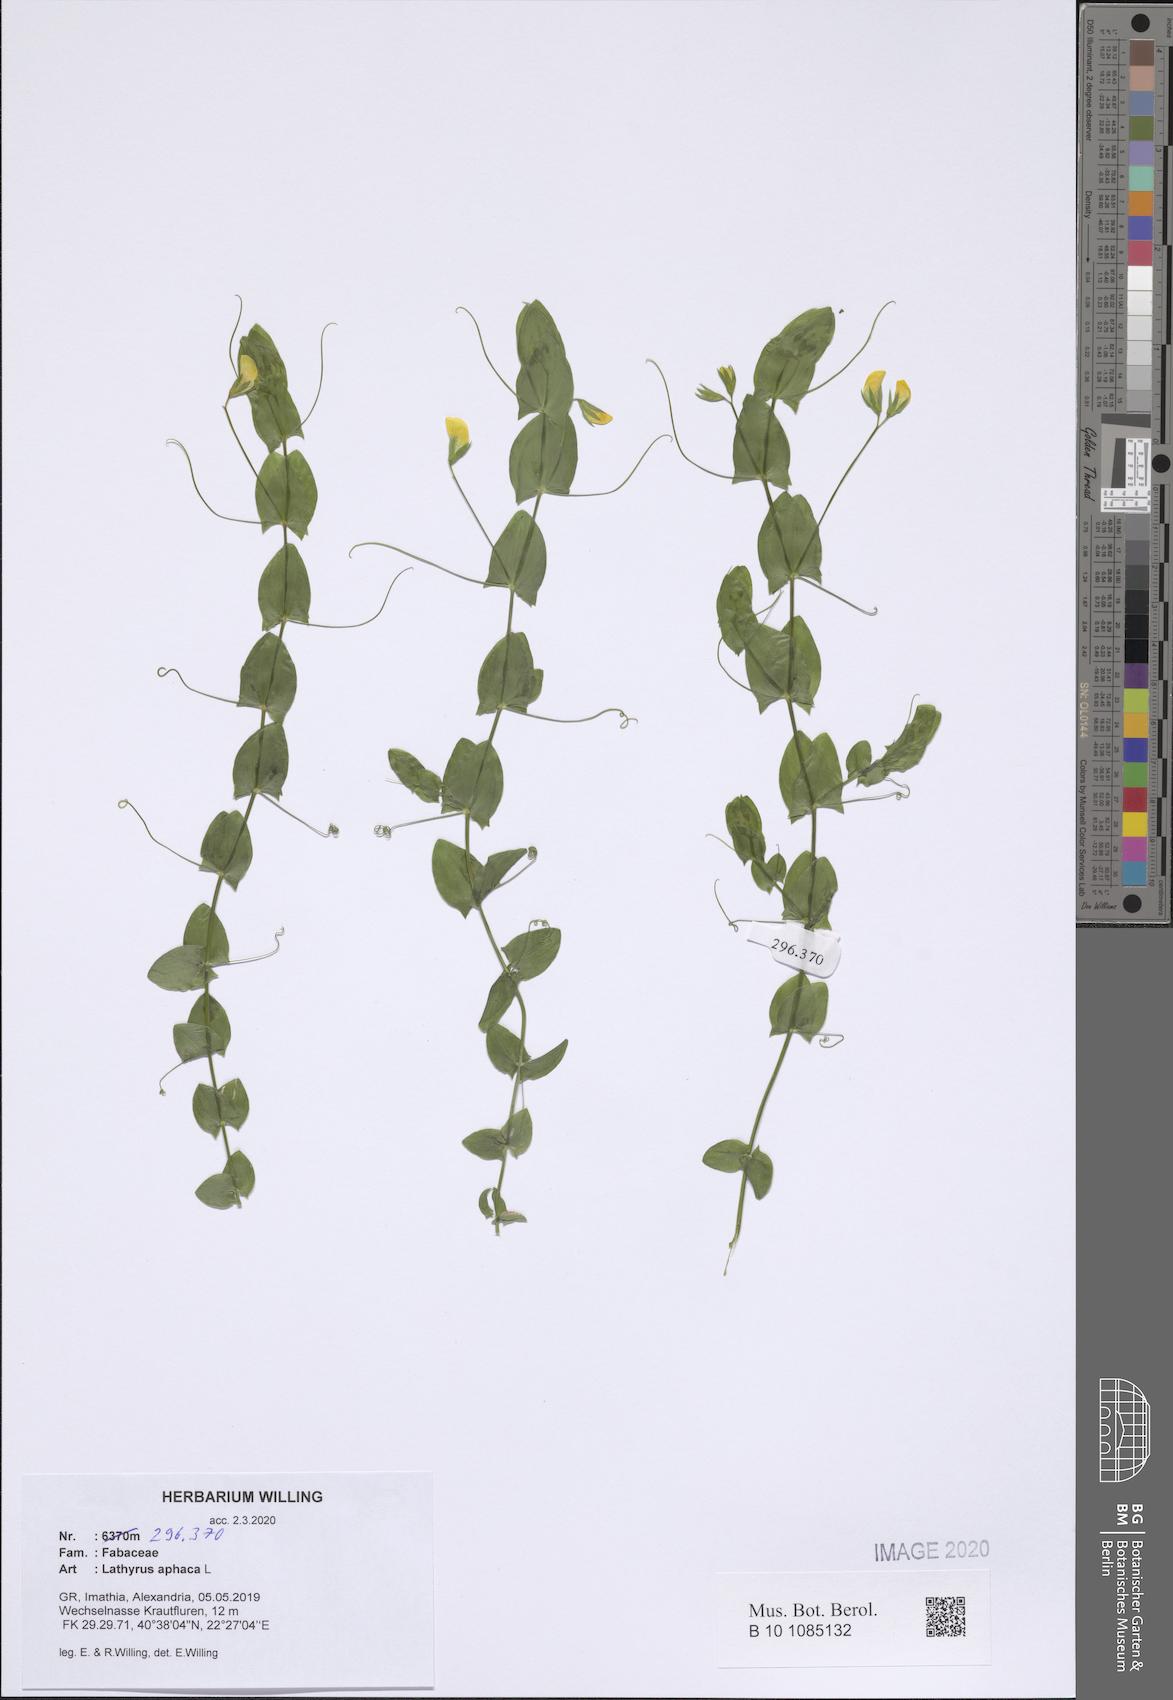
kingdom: Plantae
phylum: Tracheophyta
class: Magnoliopsida
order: Fabales
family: Fabaceae
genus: Lathyrus
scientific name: Lathyrus aphaca
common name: Yellow vetchling
